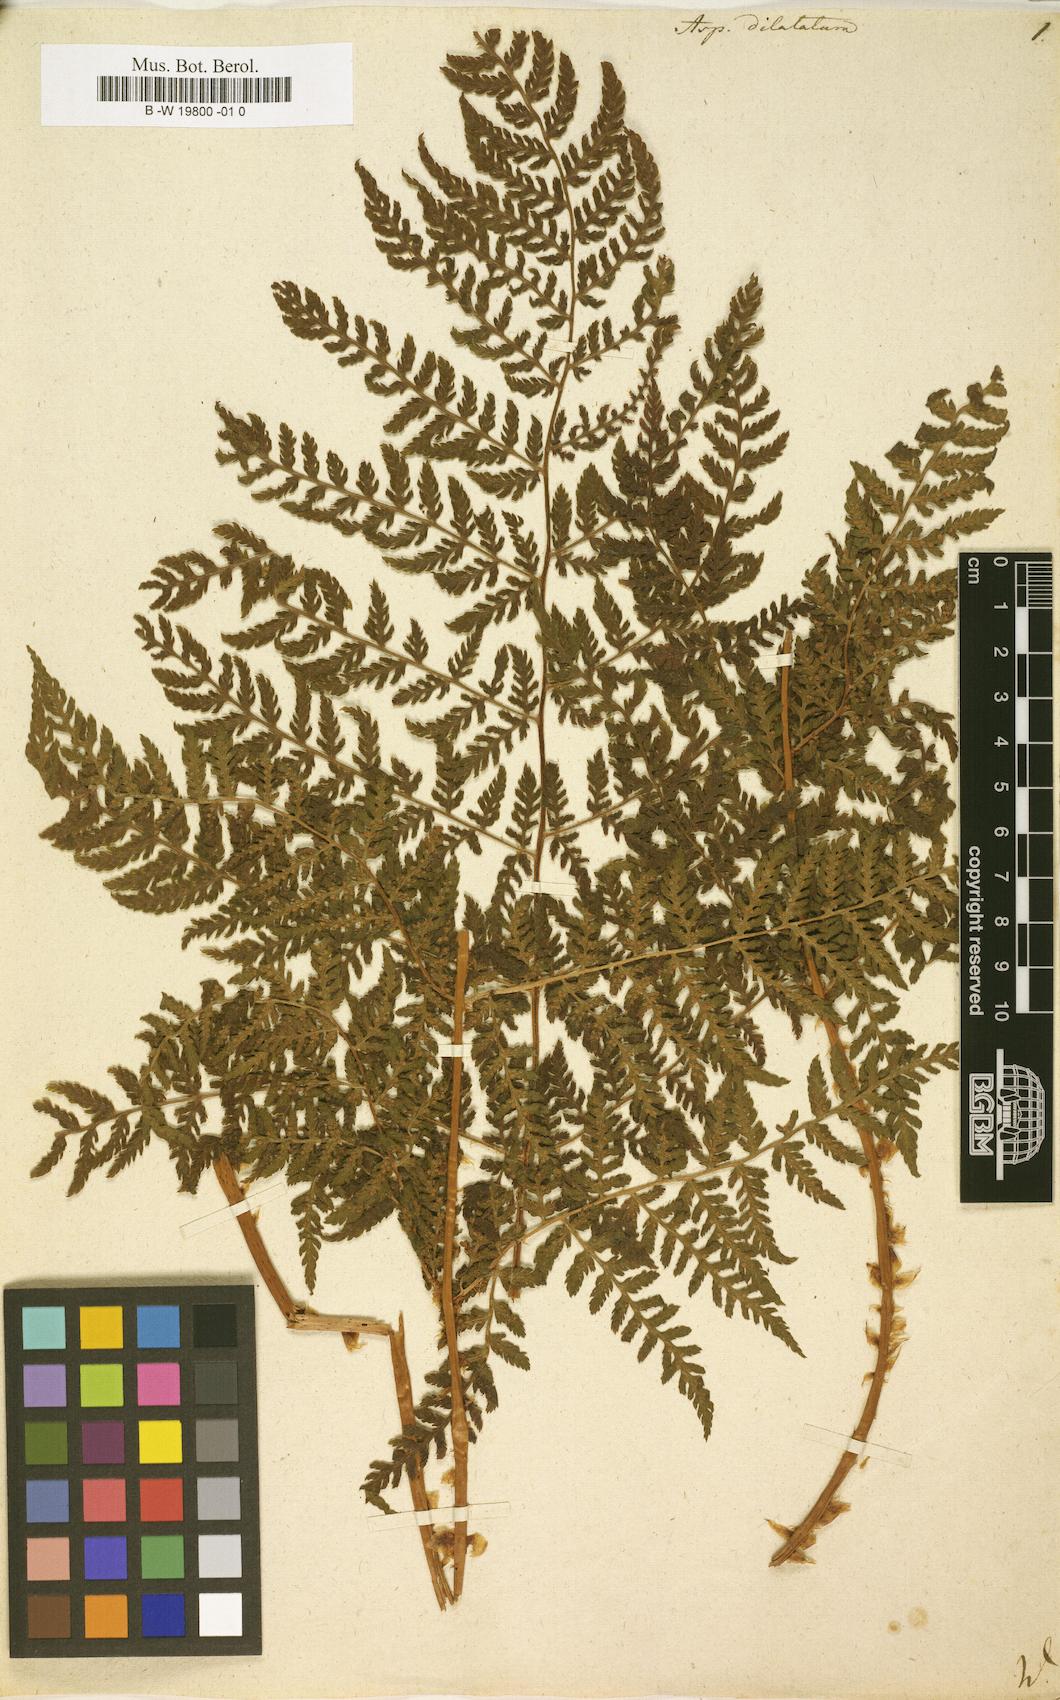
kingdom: Plantae
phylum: Tracheophyta
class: Polypodiopsida
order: Polypodiales
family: Dryopteridaceae
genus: Dryopteris
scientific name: Dryopteris dilatata
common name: Broad buckler-fern
